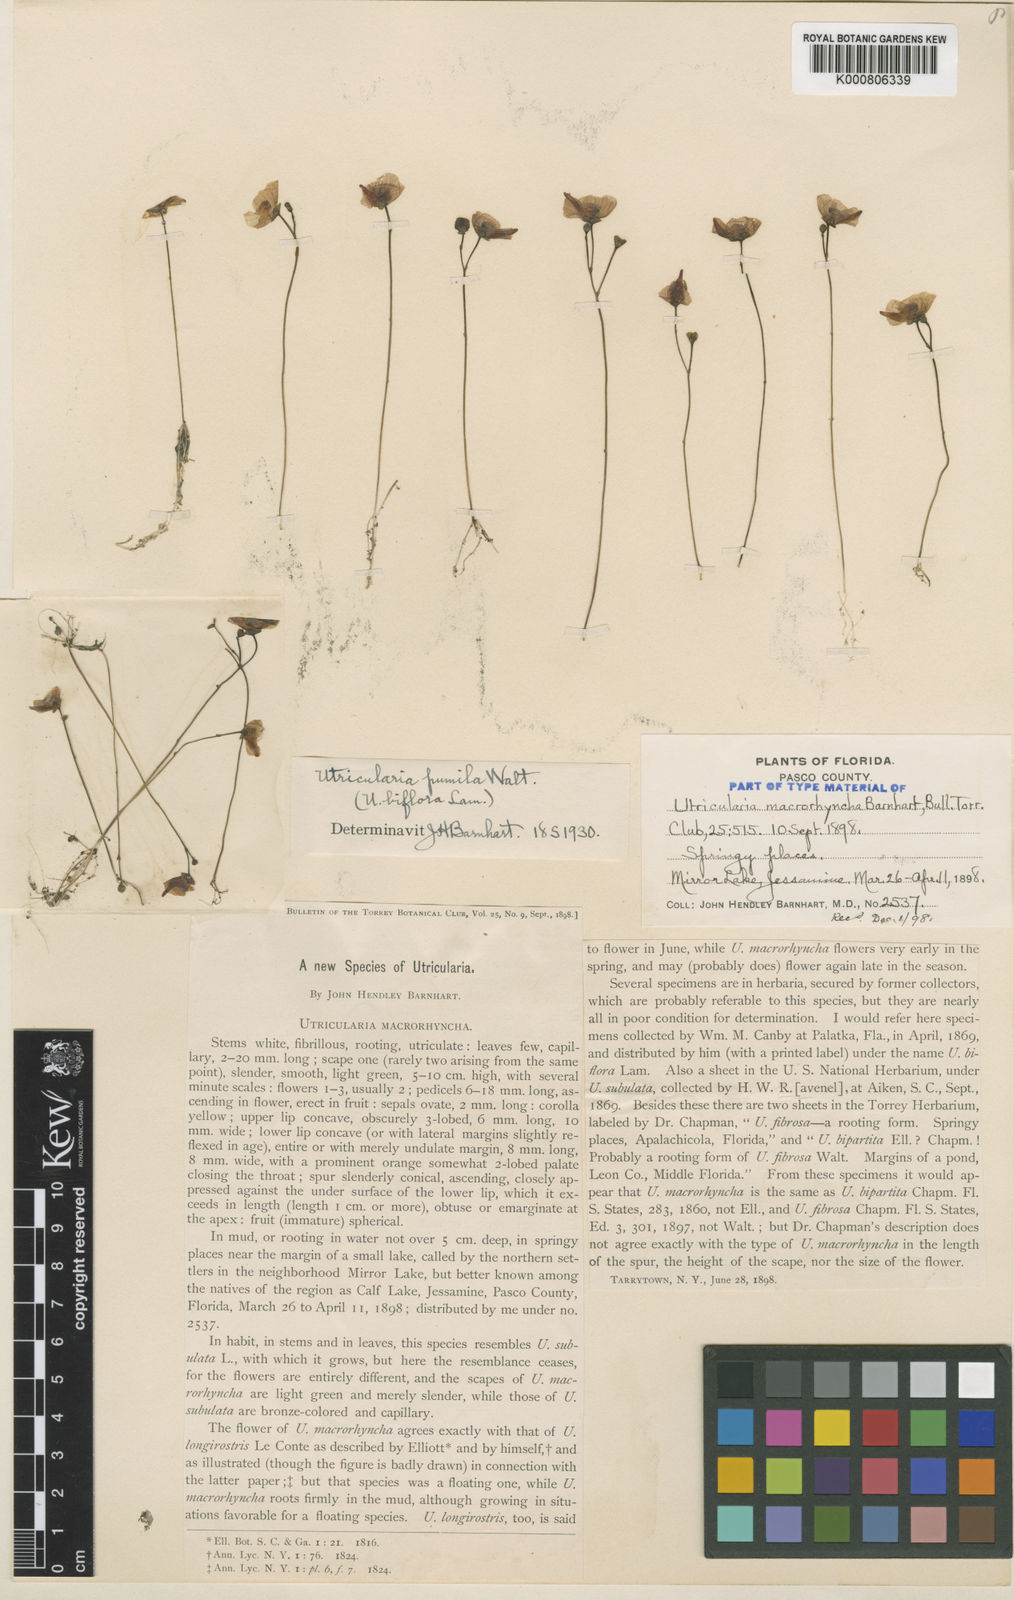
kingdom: Plantae
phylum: Tracheophyta
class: Magnoliopsida
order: Lamiales
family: Lentibulariaceae
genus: Utricularia
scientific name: Utricularia gibba
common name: Humped bladderwort
